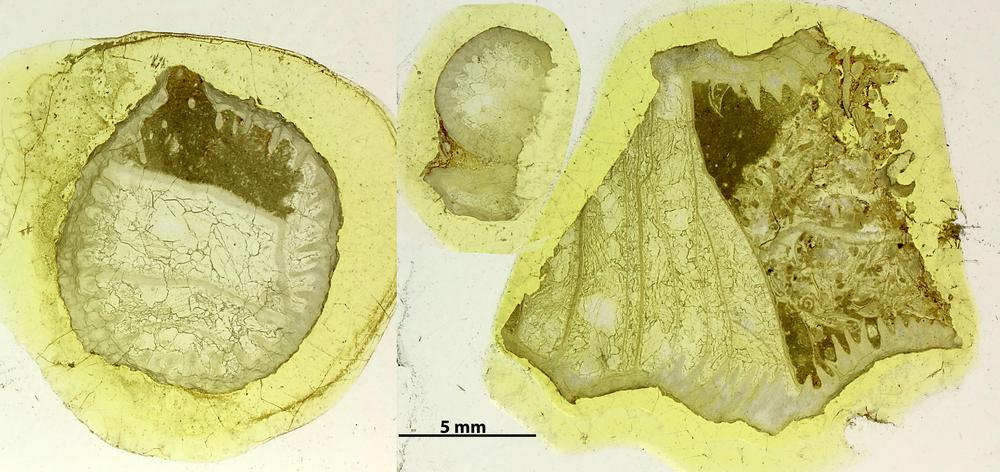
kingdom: Animalia
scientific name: Animalia
